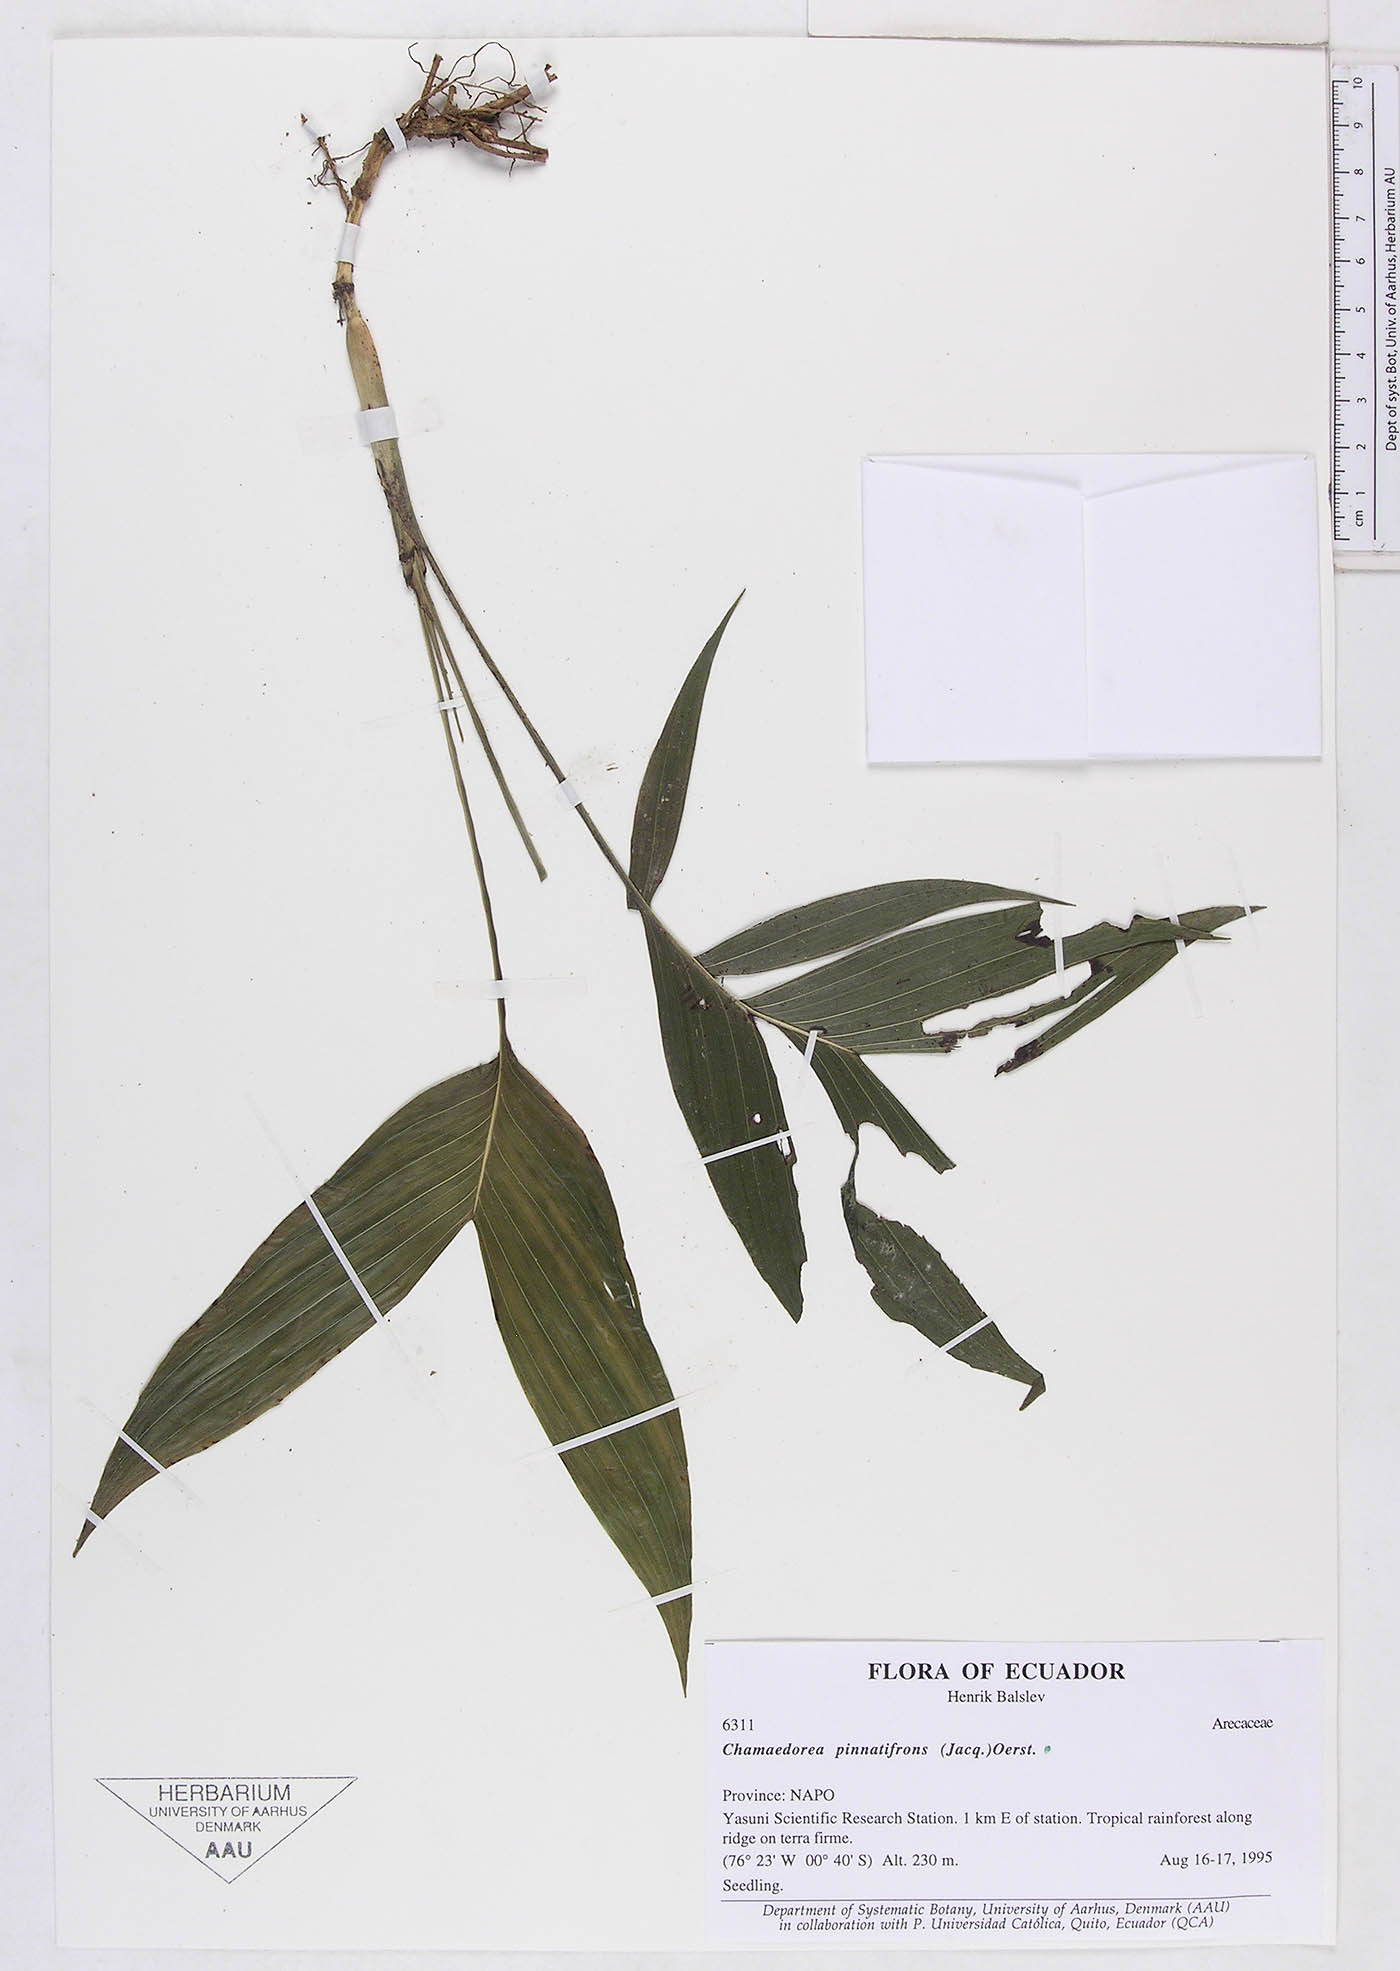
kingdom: Plantae
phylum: Tracheophyta
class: Liliopsida
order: Arecales
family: Arecaceae
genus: Chamaedorea
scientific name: Chamaedorea pinnatifrons
